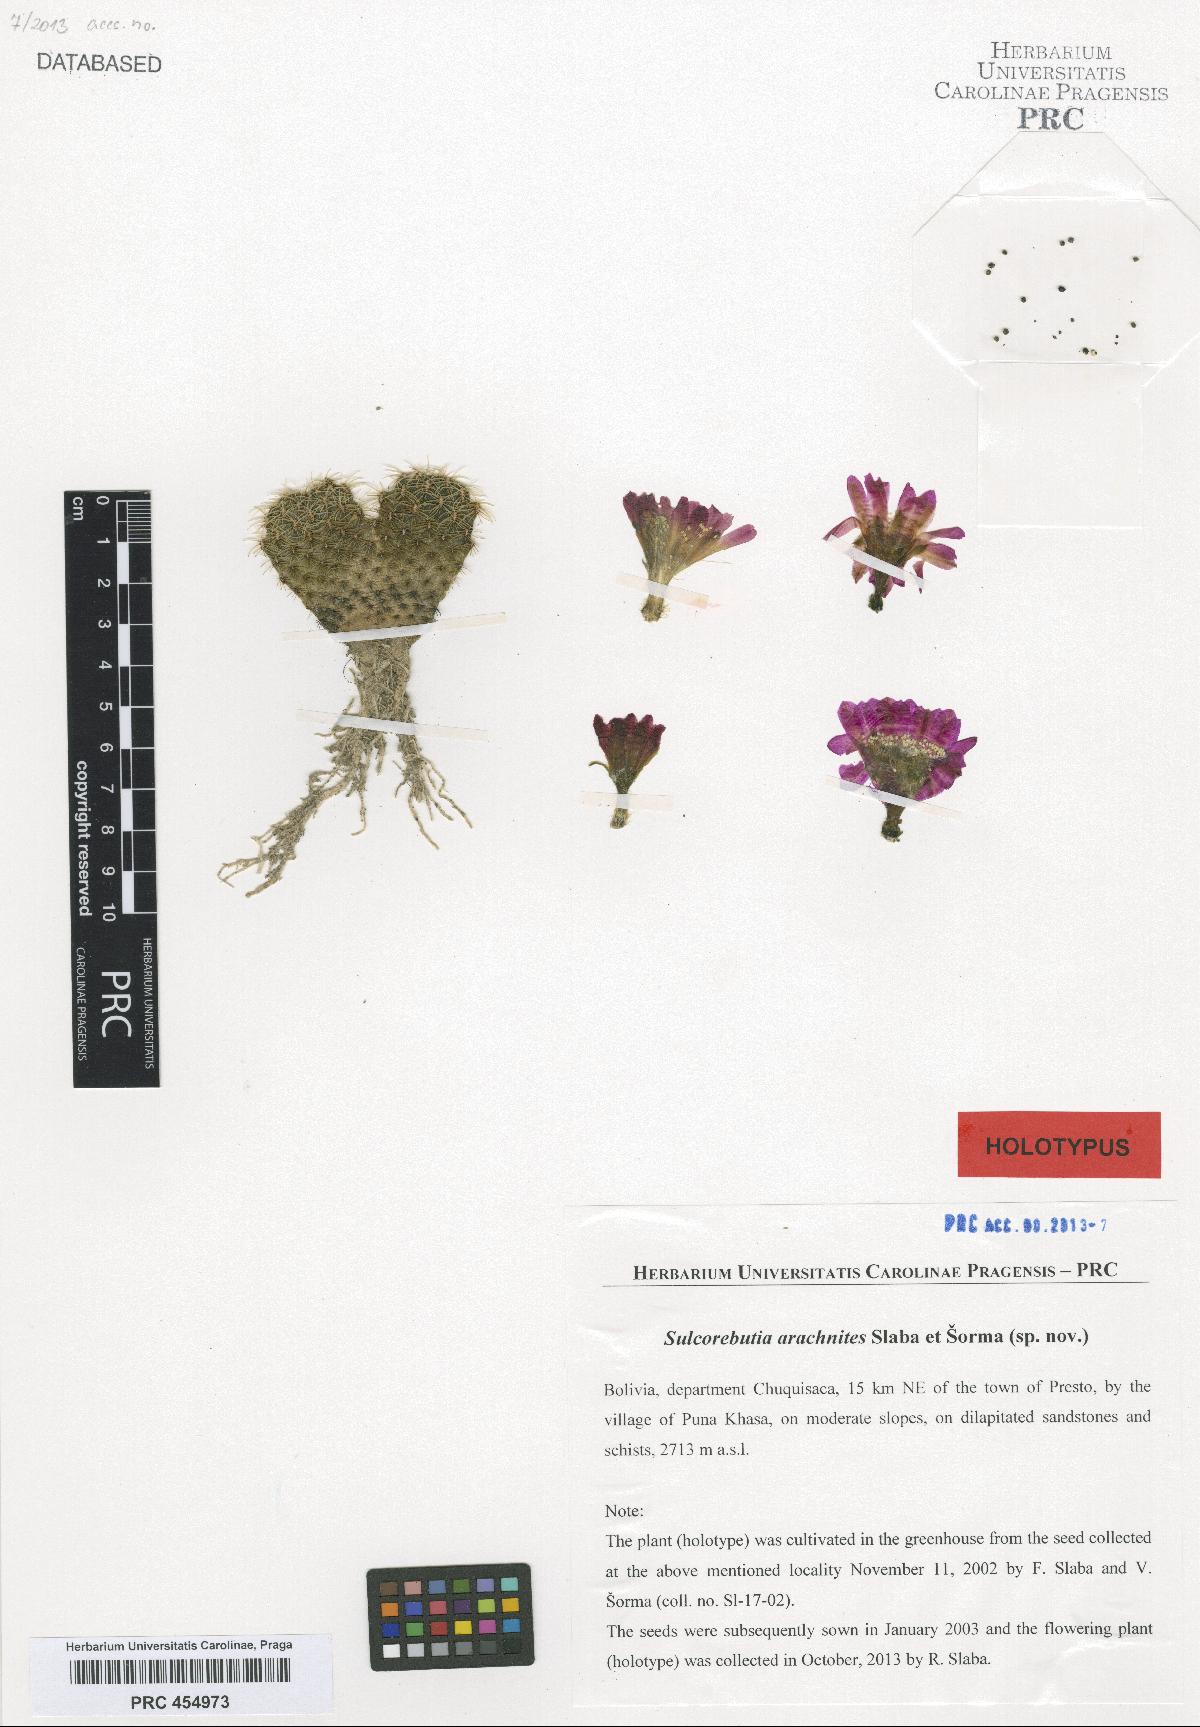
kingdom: Plantae
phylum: Tracheophyta
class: Magnoliopsida
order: Caryophyllales
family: Cactaceae
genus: Weingartia
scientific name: Weingartia canigueralii
